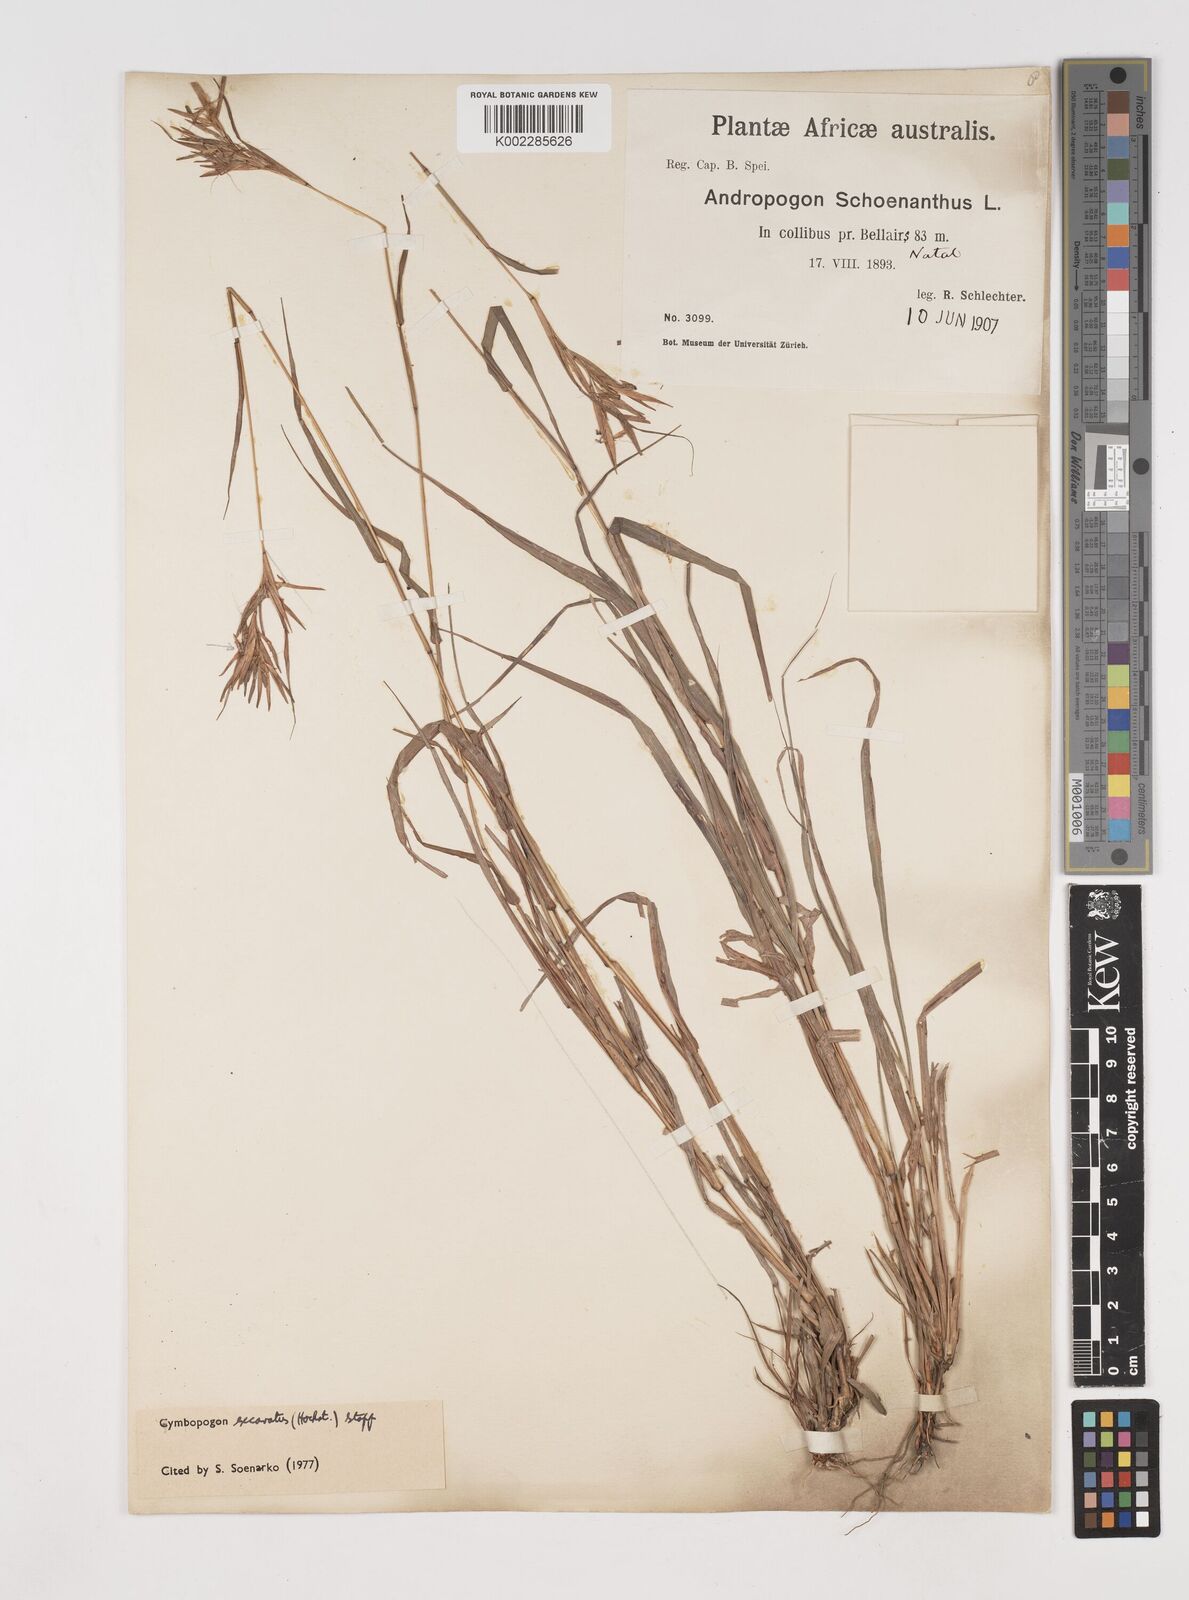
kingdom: Plantae
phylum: Tracheophyta
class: Liliopsida
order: Poales
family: Poaceae
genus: Cymbopogon
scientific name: Cymbopogon caesius
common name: Kachi grass
